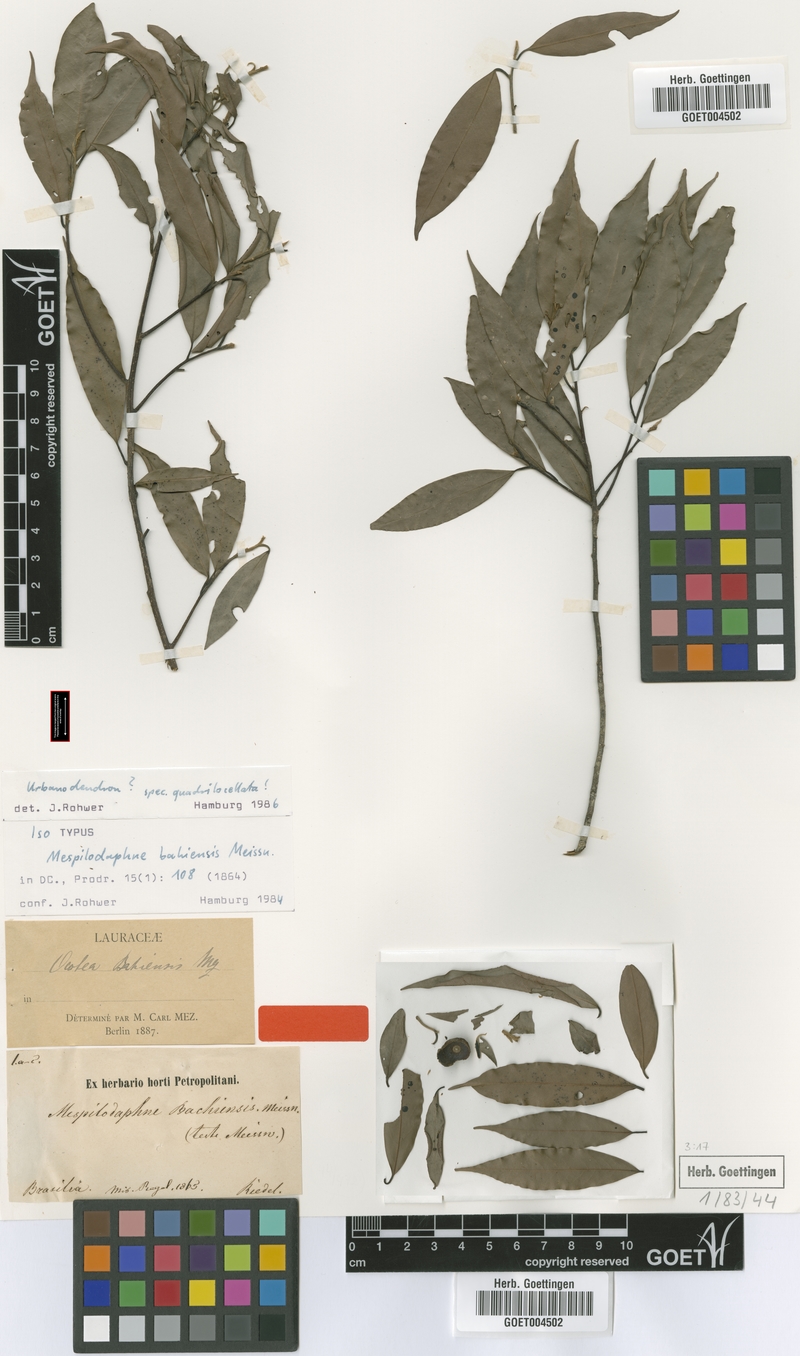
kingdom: Plantae
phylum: Tracheophyta
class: Magnoliopsida
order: Laurales
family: Lauraceae
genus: Urbanodendron
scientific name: Urbanodendron bahiense
